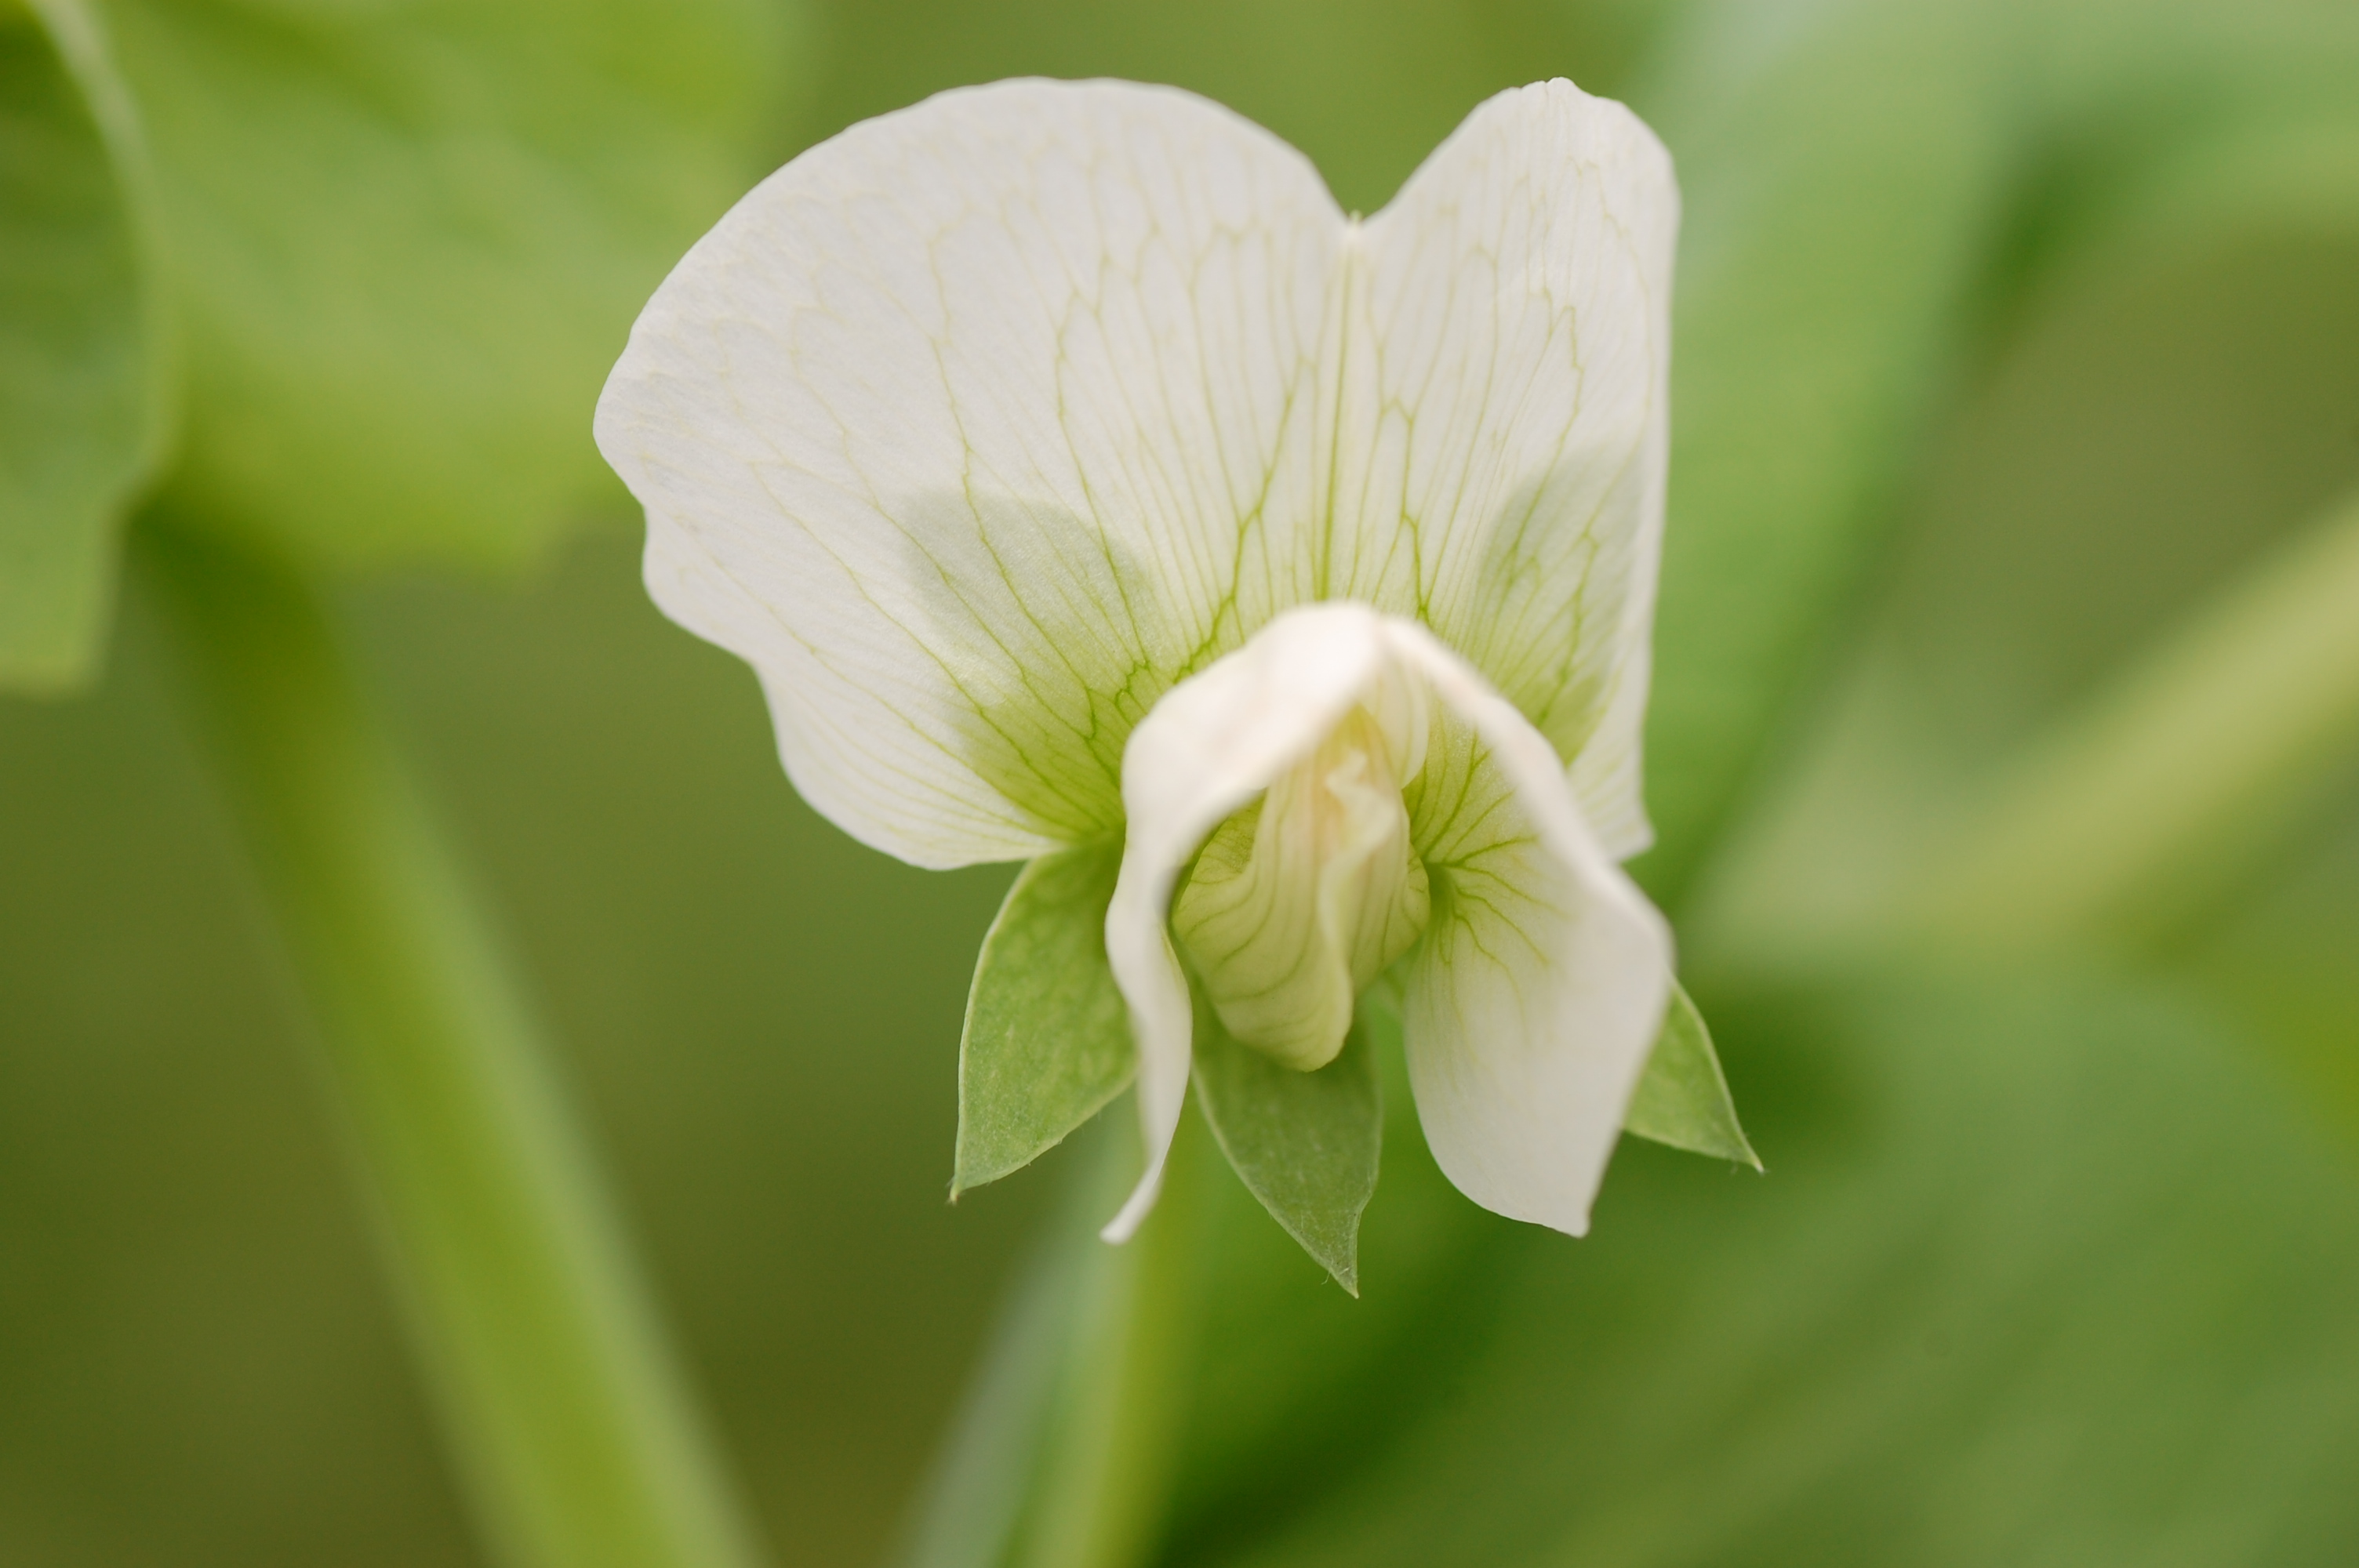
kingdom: Plantae
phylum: Tracheophyta
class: Magnoliopsida
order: Fabales
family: Fabaceae
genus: Lathyrus
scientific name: Lathyrus oleraceus
